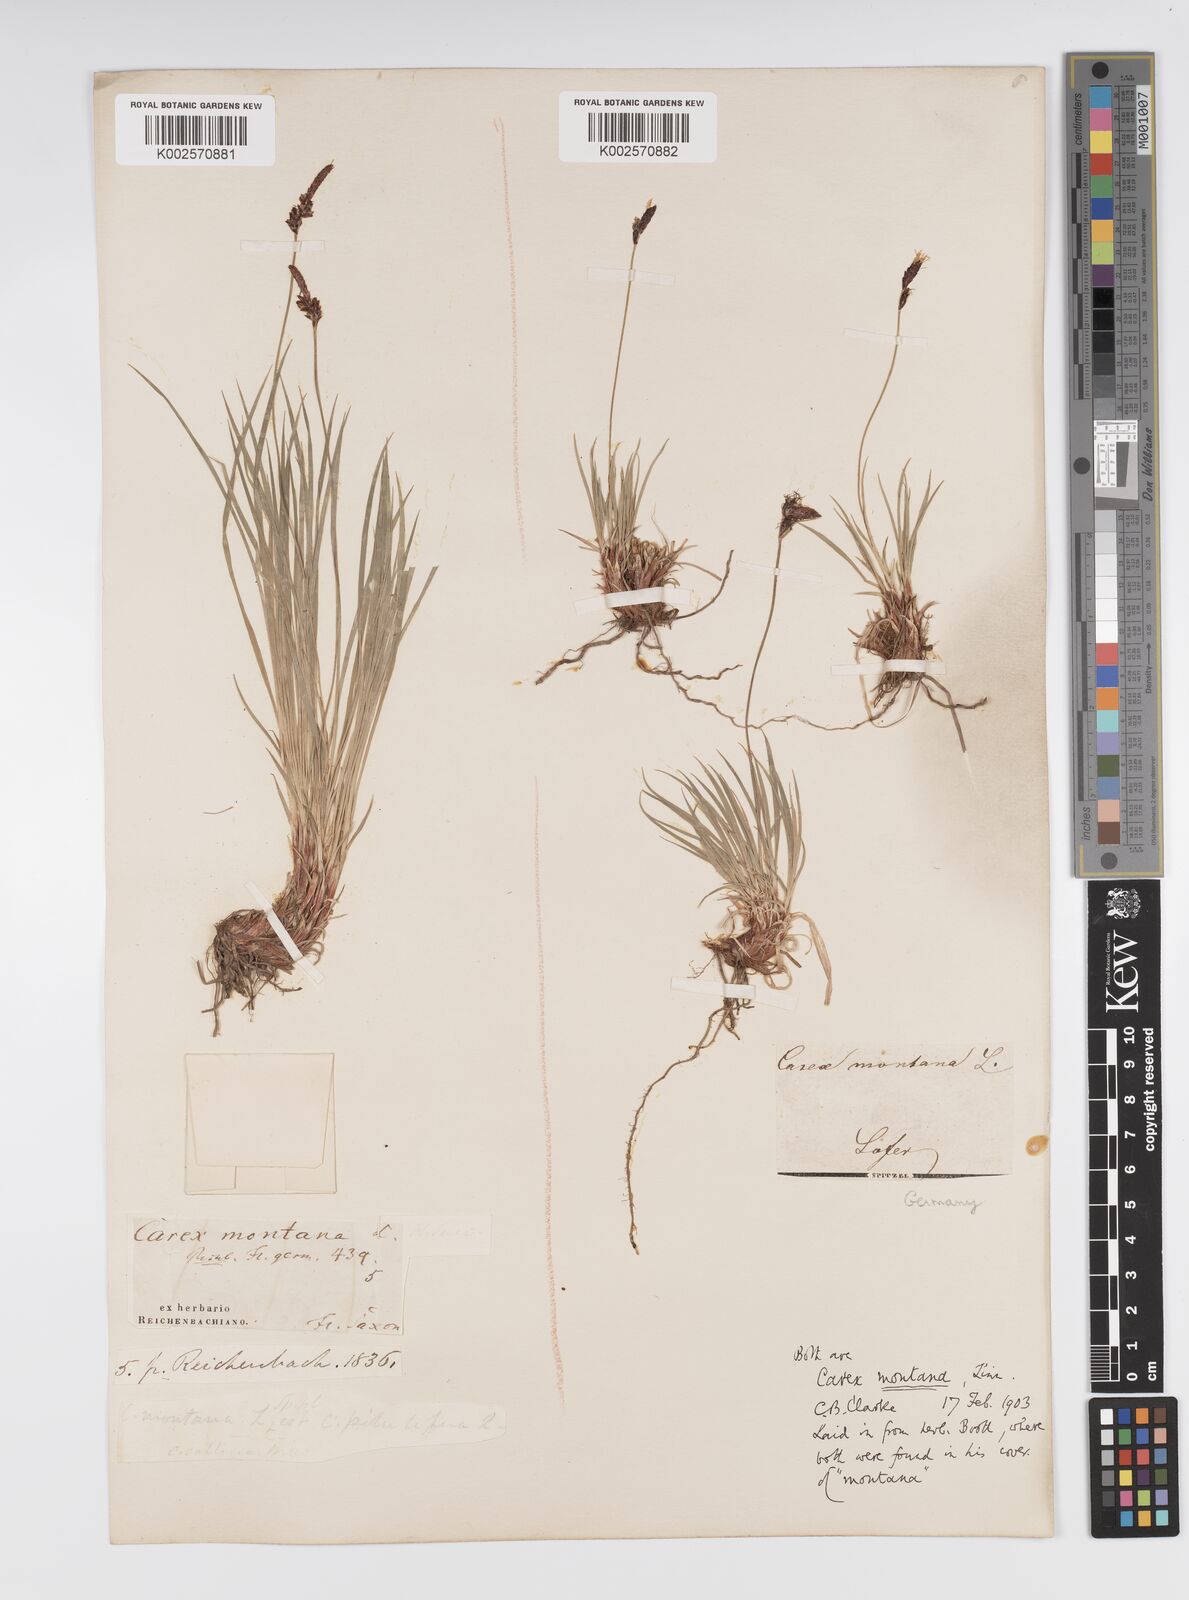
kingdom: Plantae
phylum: Tracheophyta
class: Liliopsida
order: Poales
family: Cyperaceae
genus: Carex
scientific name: Carex montana
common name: Soft-leaved sedge
